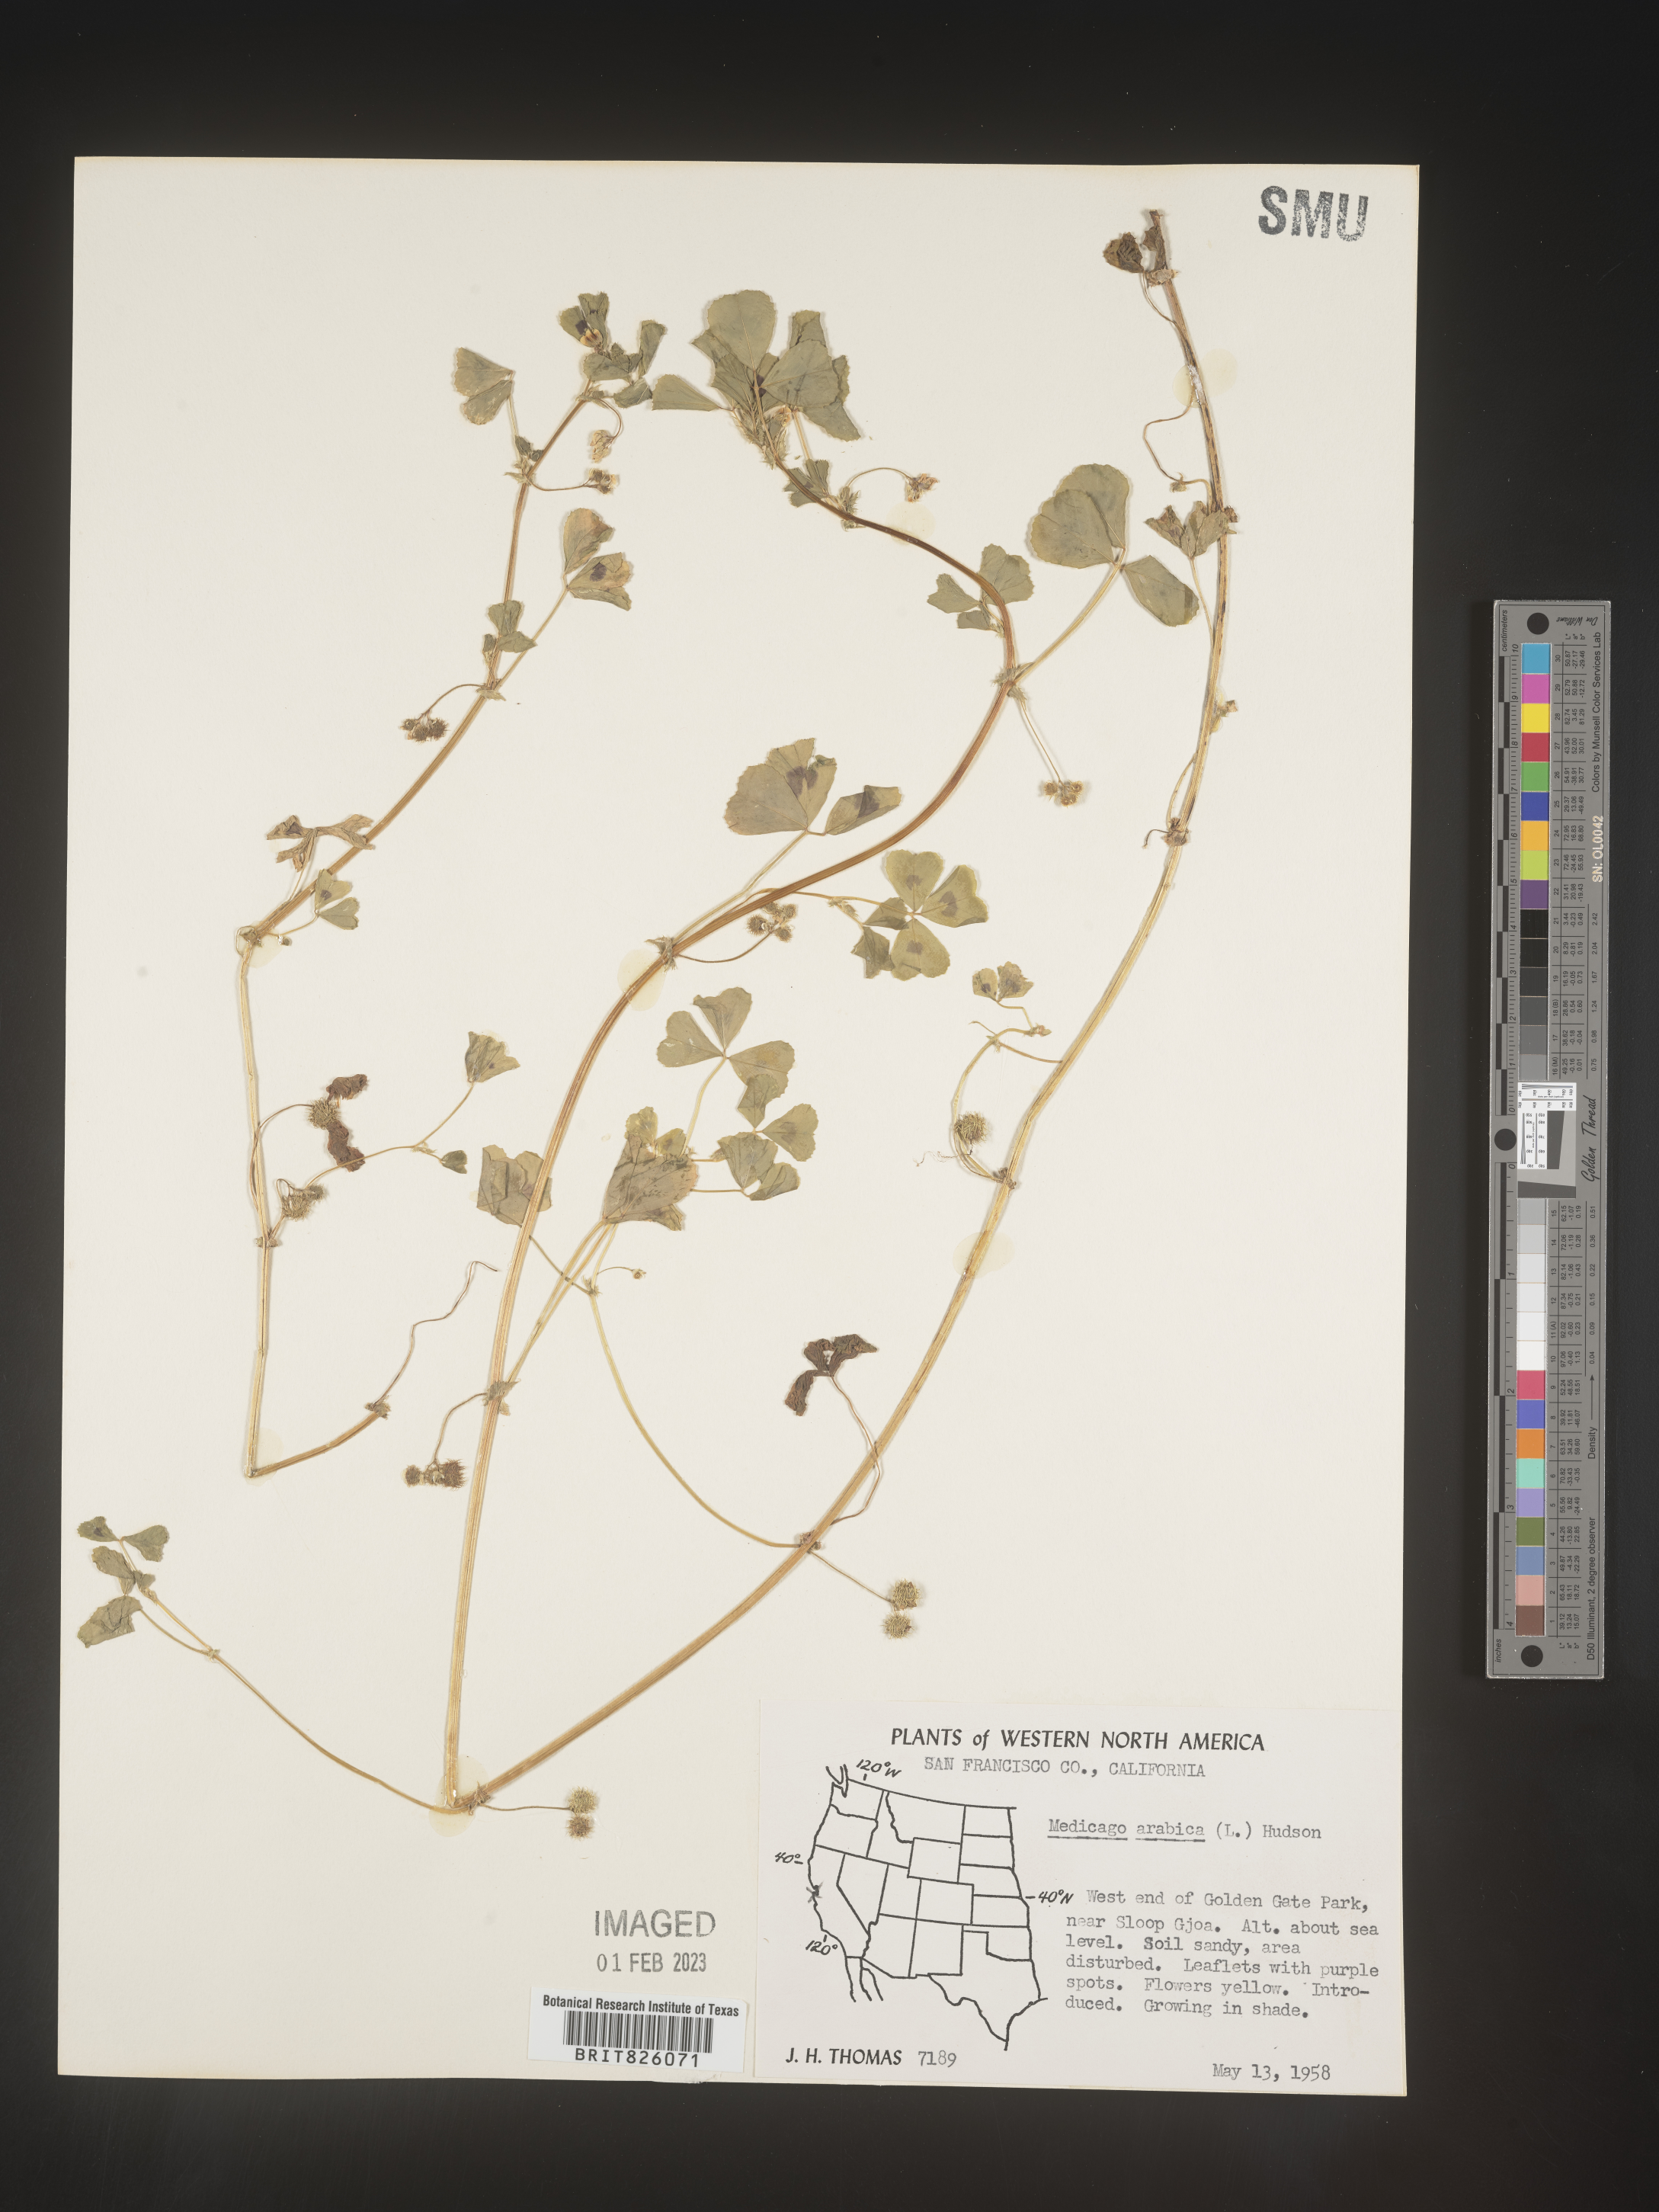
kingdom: Plantae
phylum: Tracheophyta
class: Magnoliopsida
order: Fabales
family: Fabaceae
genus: Medicago
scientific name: Medicago arabica
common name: Spotted medick
